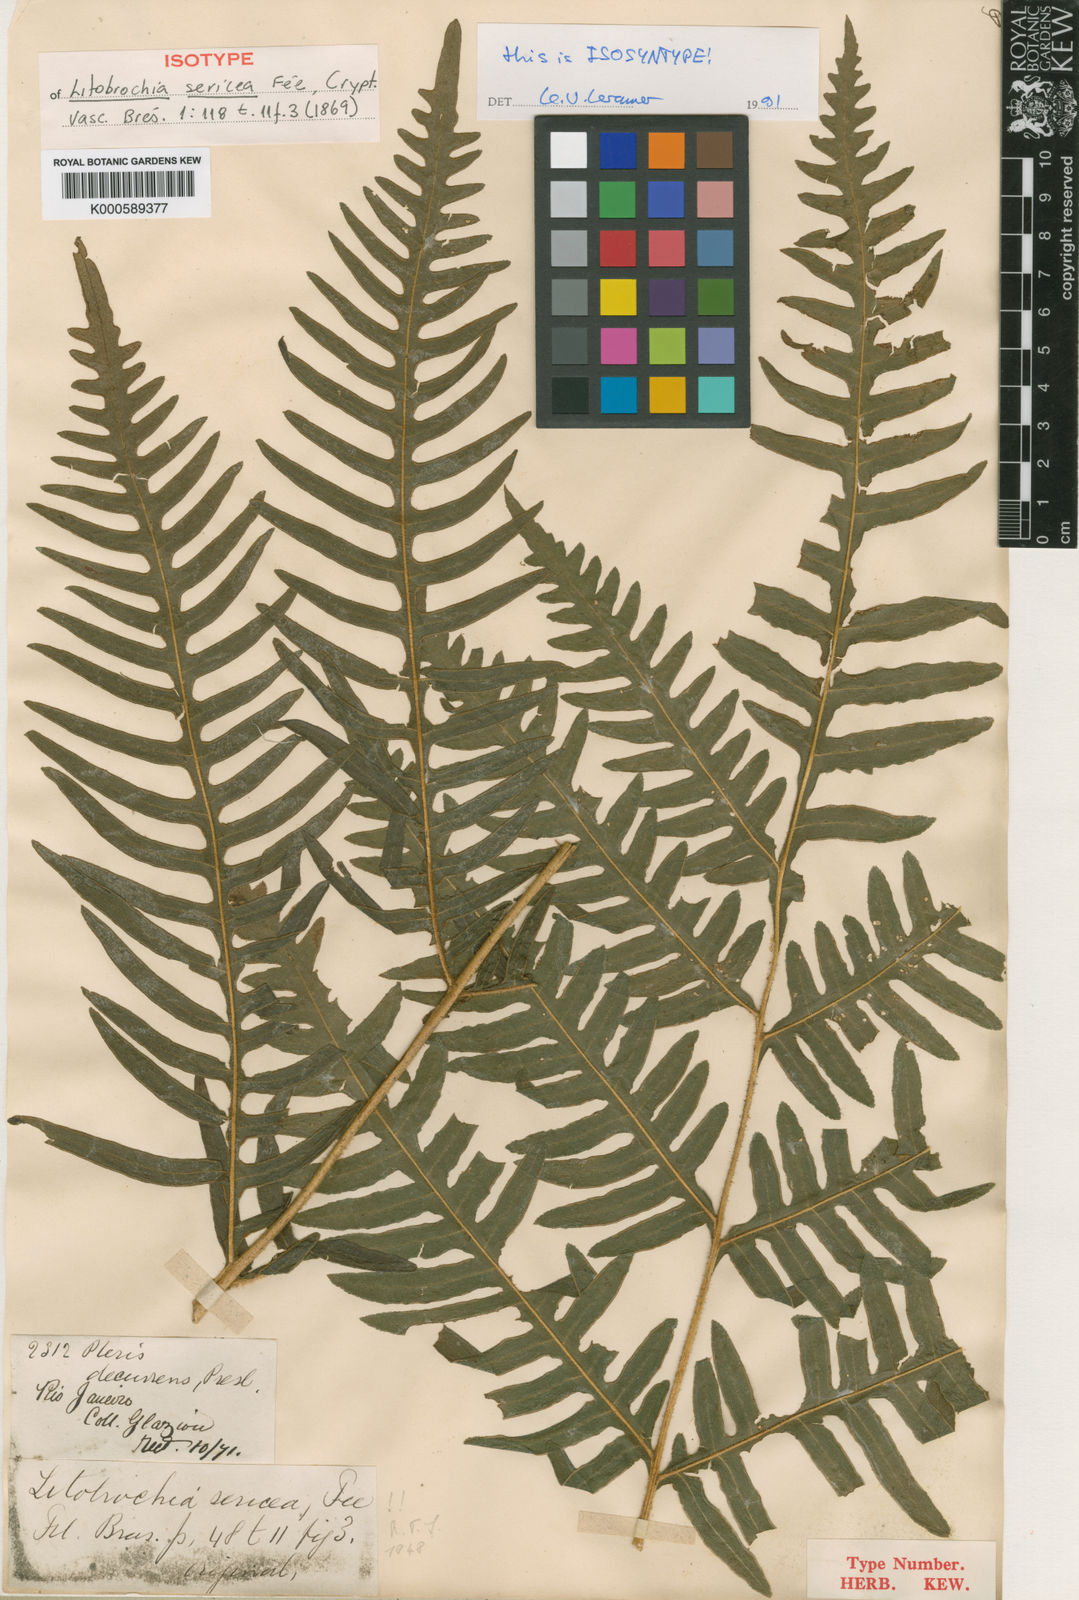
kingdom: Plantae
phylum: Tracheophyta
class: Polypodiopsida
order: Polypodiales
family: Pteridaceae
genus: Pteris
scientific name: Pteris
